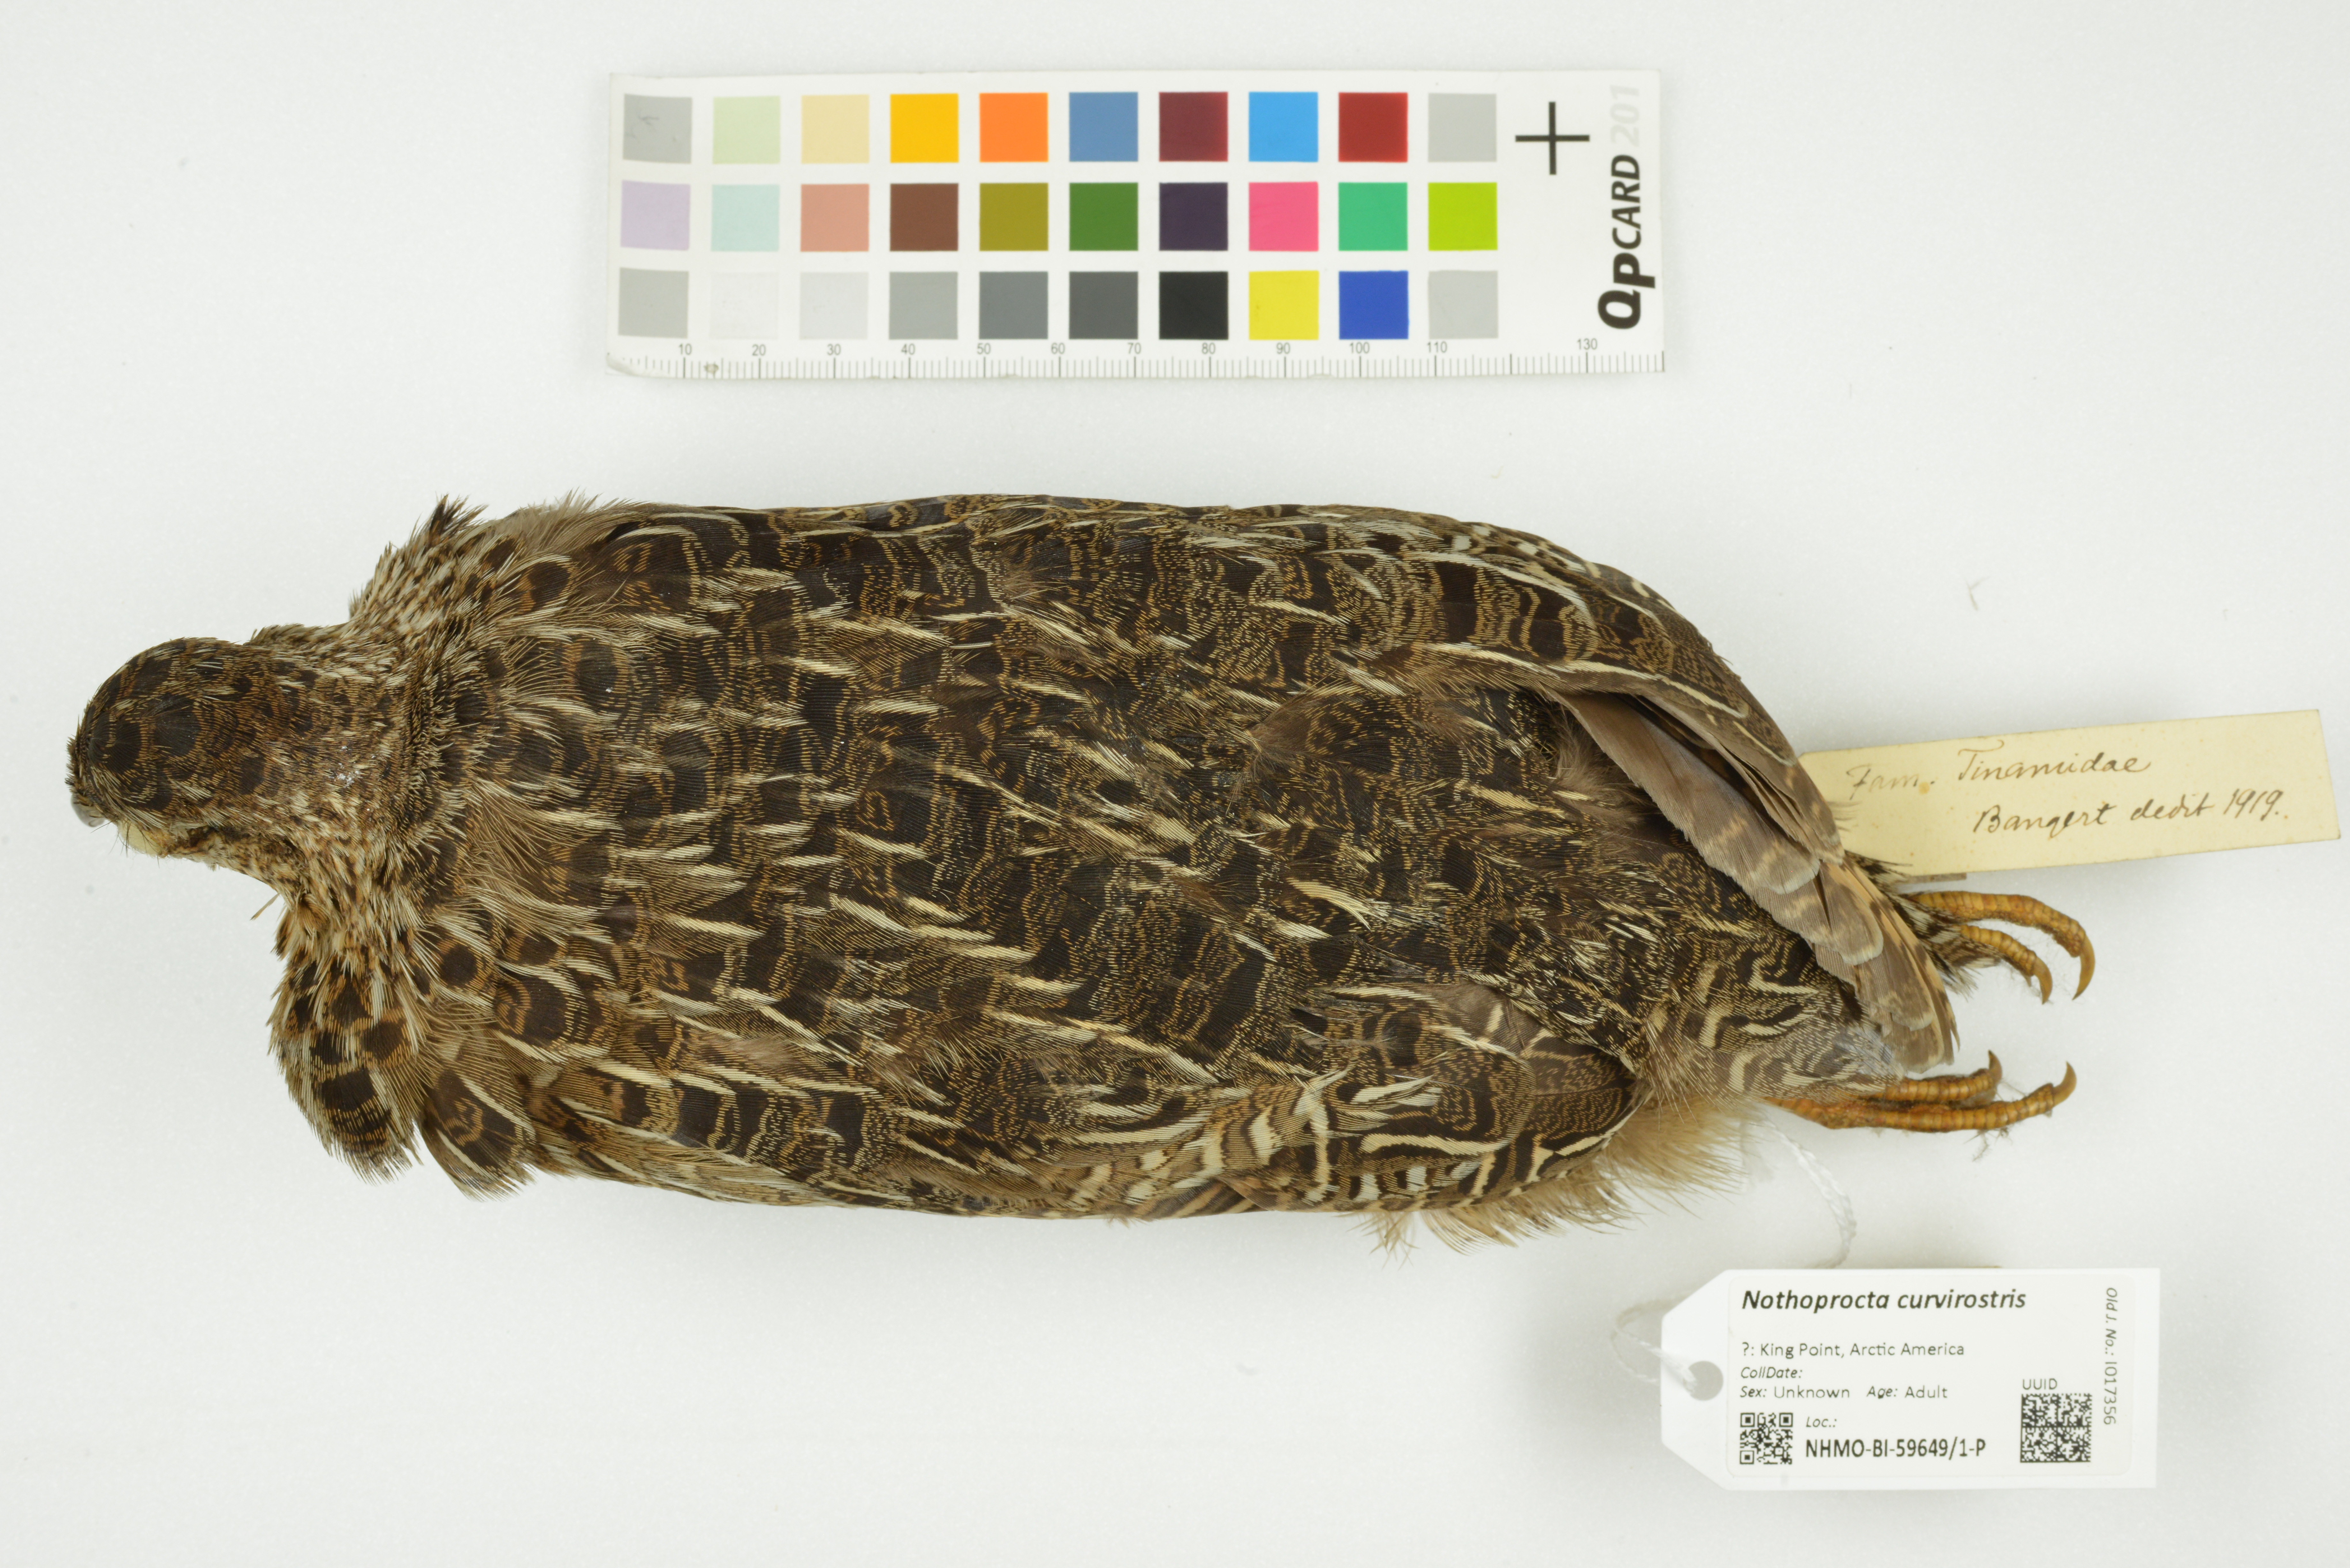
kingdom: Animalia
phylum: Chordata
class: Aves
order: Tinamiformes
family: Tinamidae
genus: Nothoprocta
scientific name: Nothoprocta curvirostris
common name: Curve-billed tinamou
